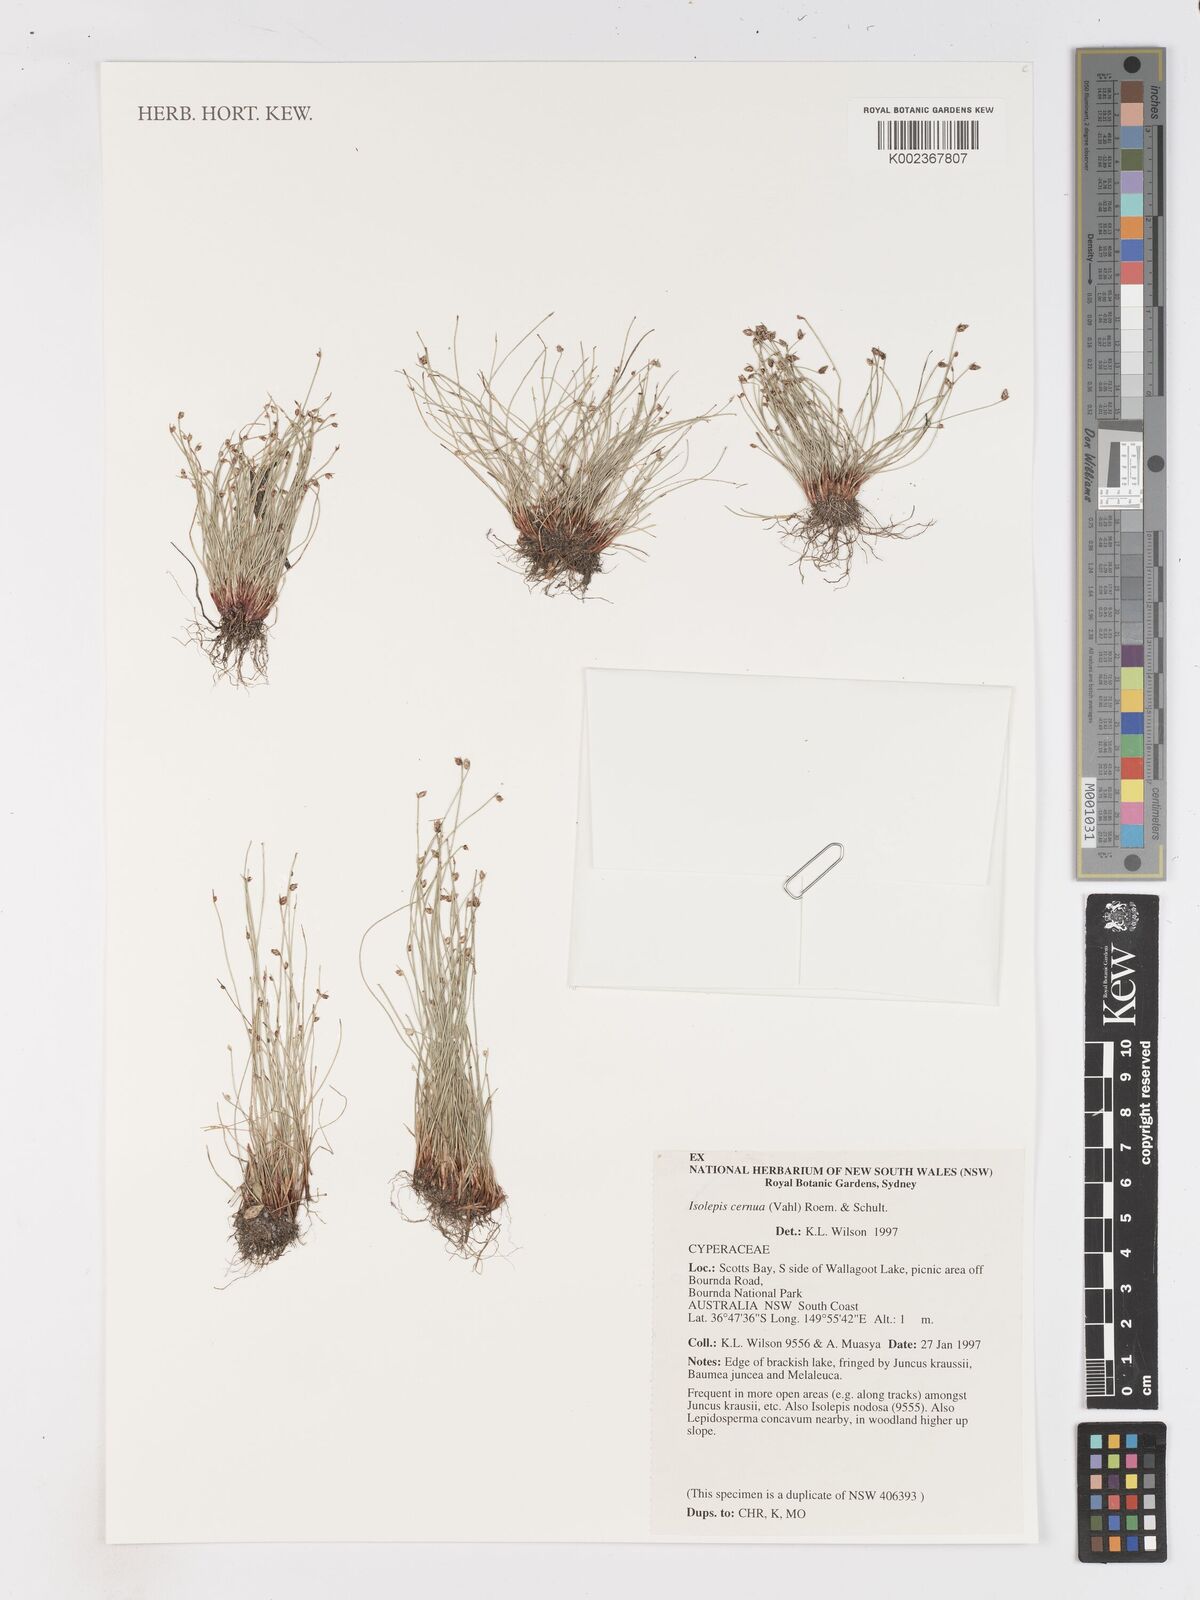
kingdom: Plantae
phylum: Tracheophyta
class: Liliopsida
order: Poales
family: Cyperaceae
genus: Isolepis
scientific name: Isolepis cernua
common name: Slender club-rush
